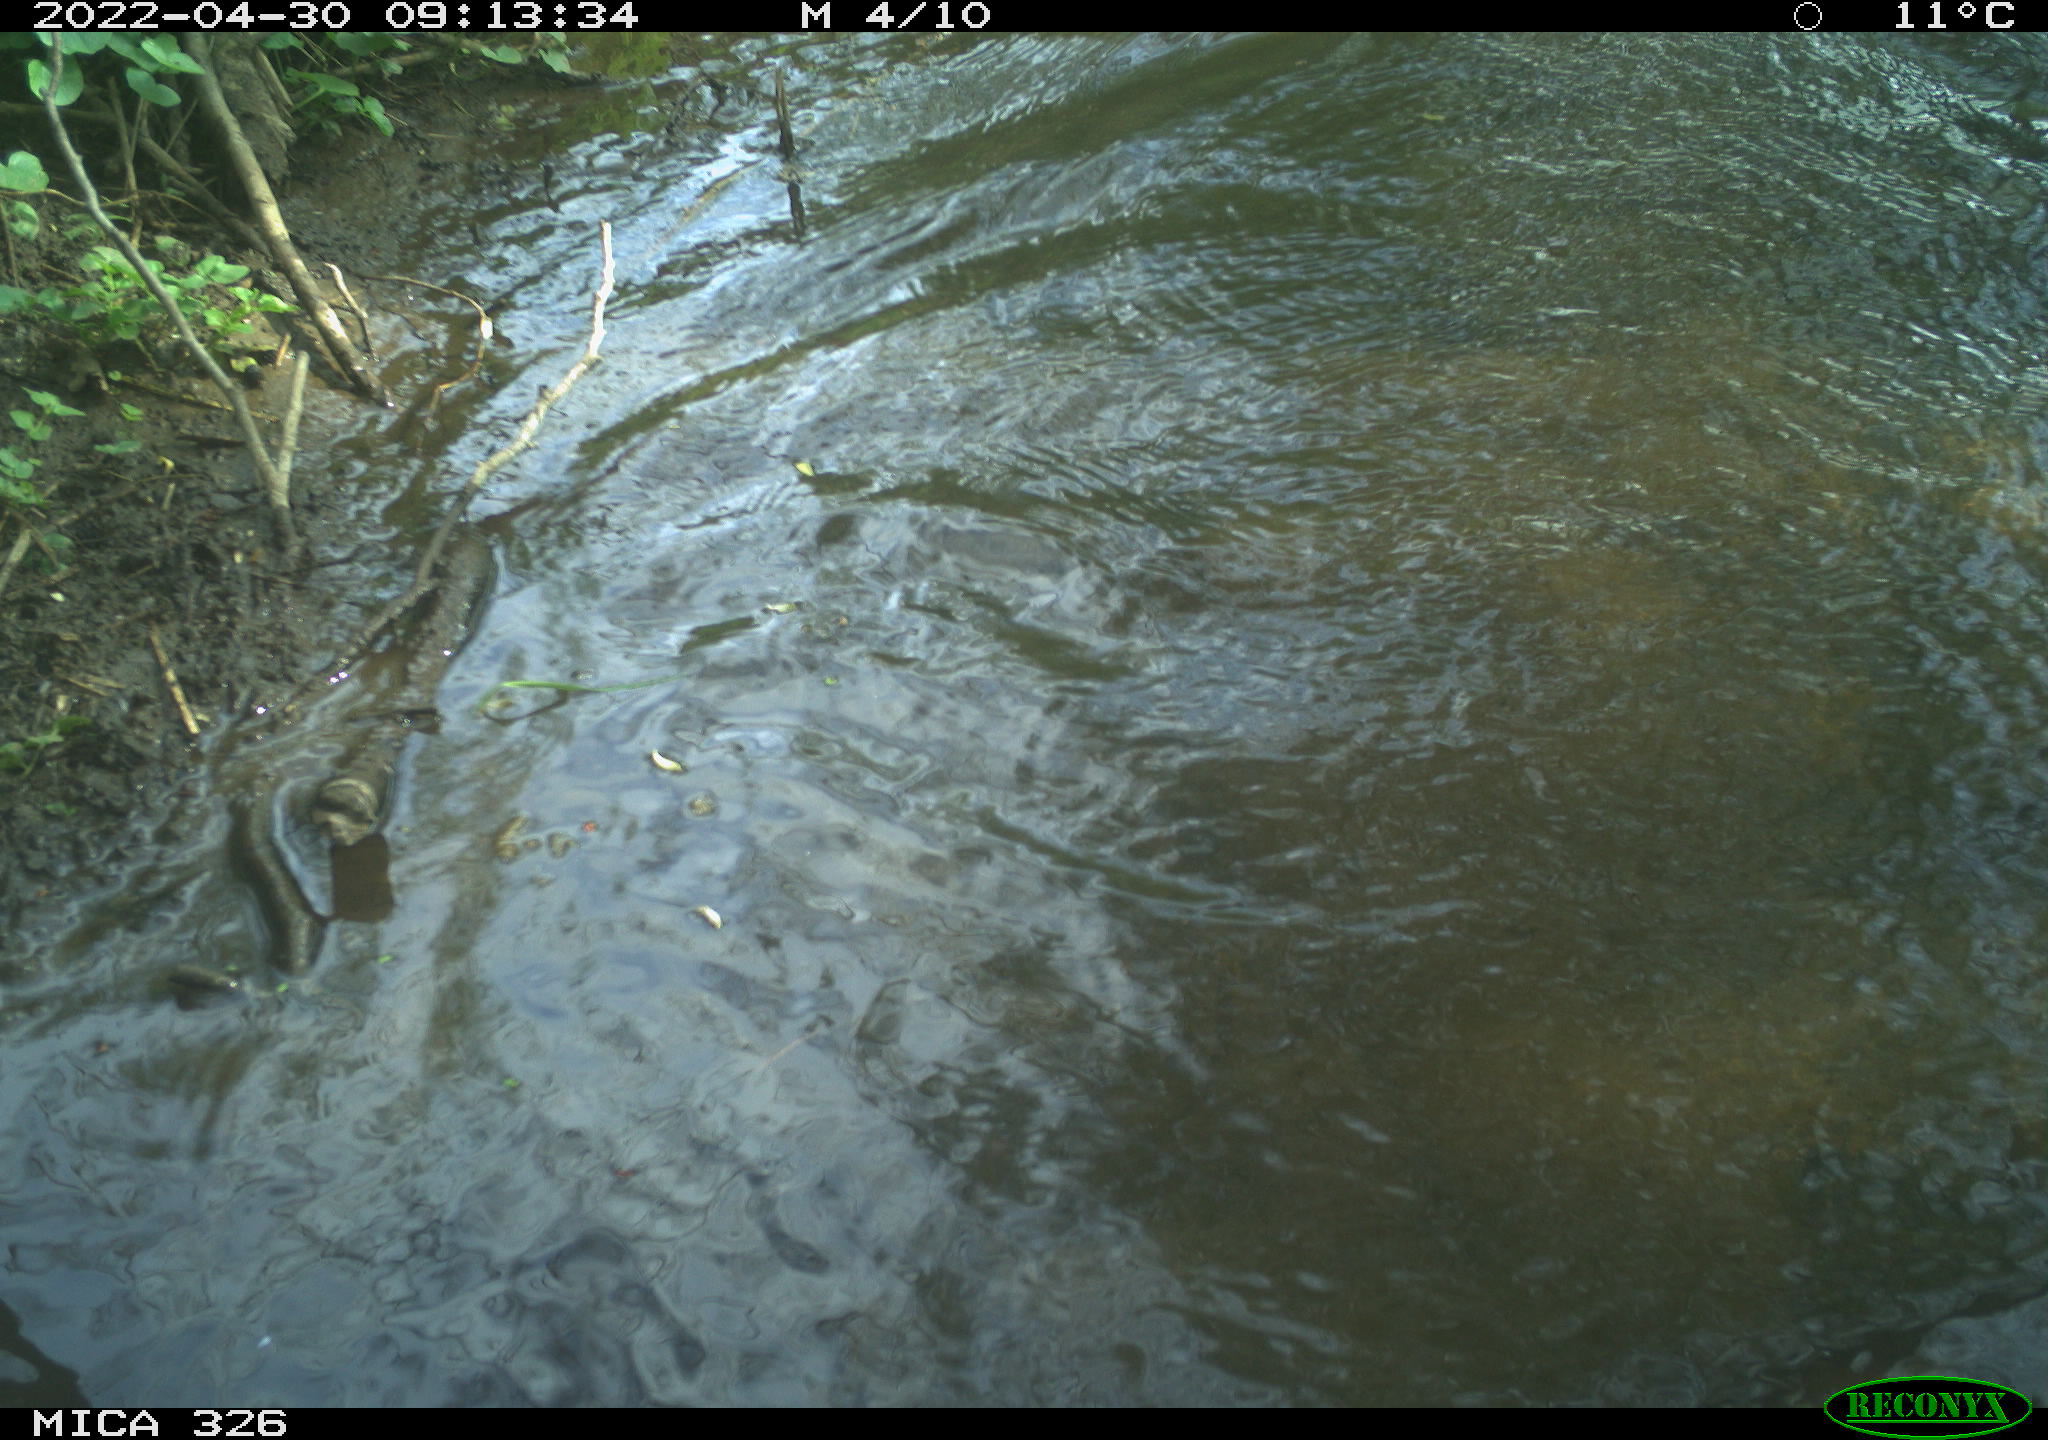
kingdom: Animalia
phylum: Chordata
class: Mammalia
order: Rodentia
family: Cricetidae
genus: Ondatra
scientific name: Ondatra zibethicus
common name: Muskrat
